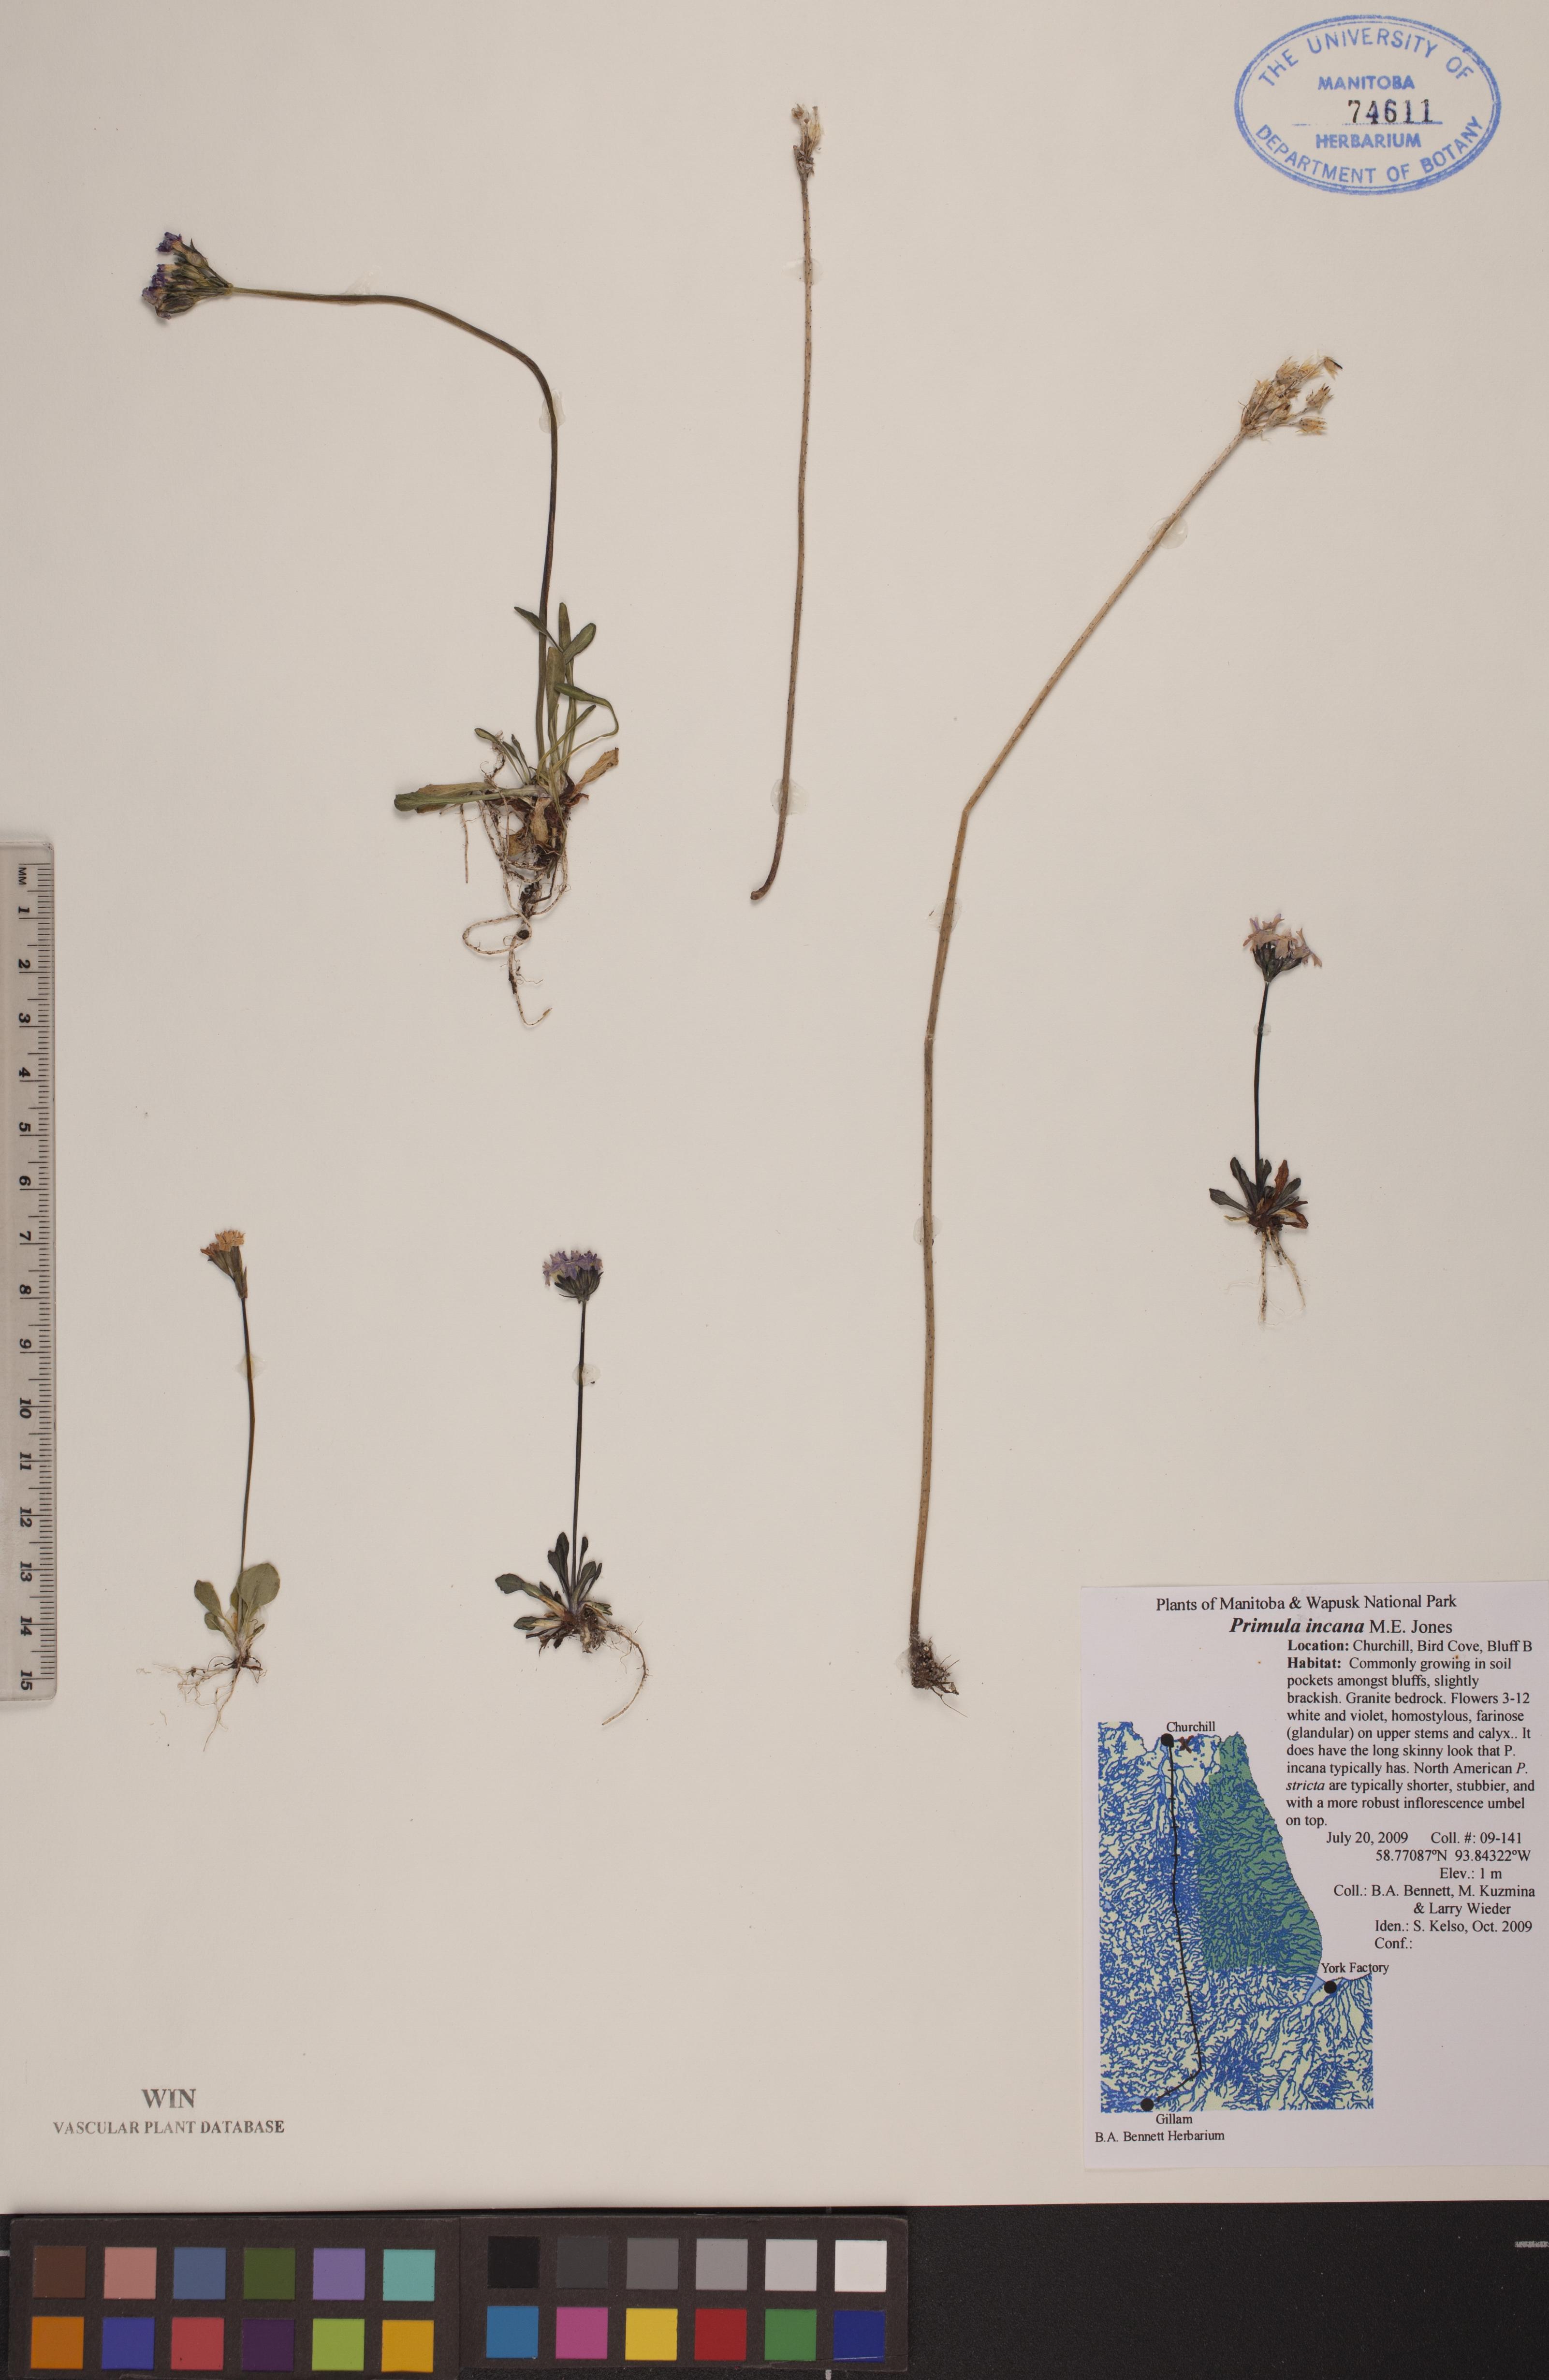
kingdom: Plantae
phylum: Tracheophyta
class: Magnoliopsida
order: Ericales
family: Primulaceae
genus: Primula
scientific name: Primula incana
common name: Hoary primrose
